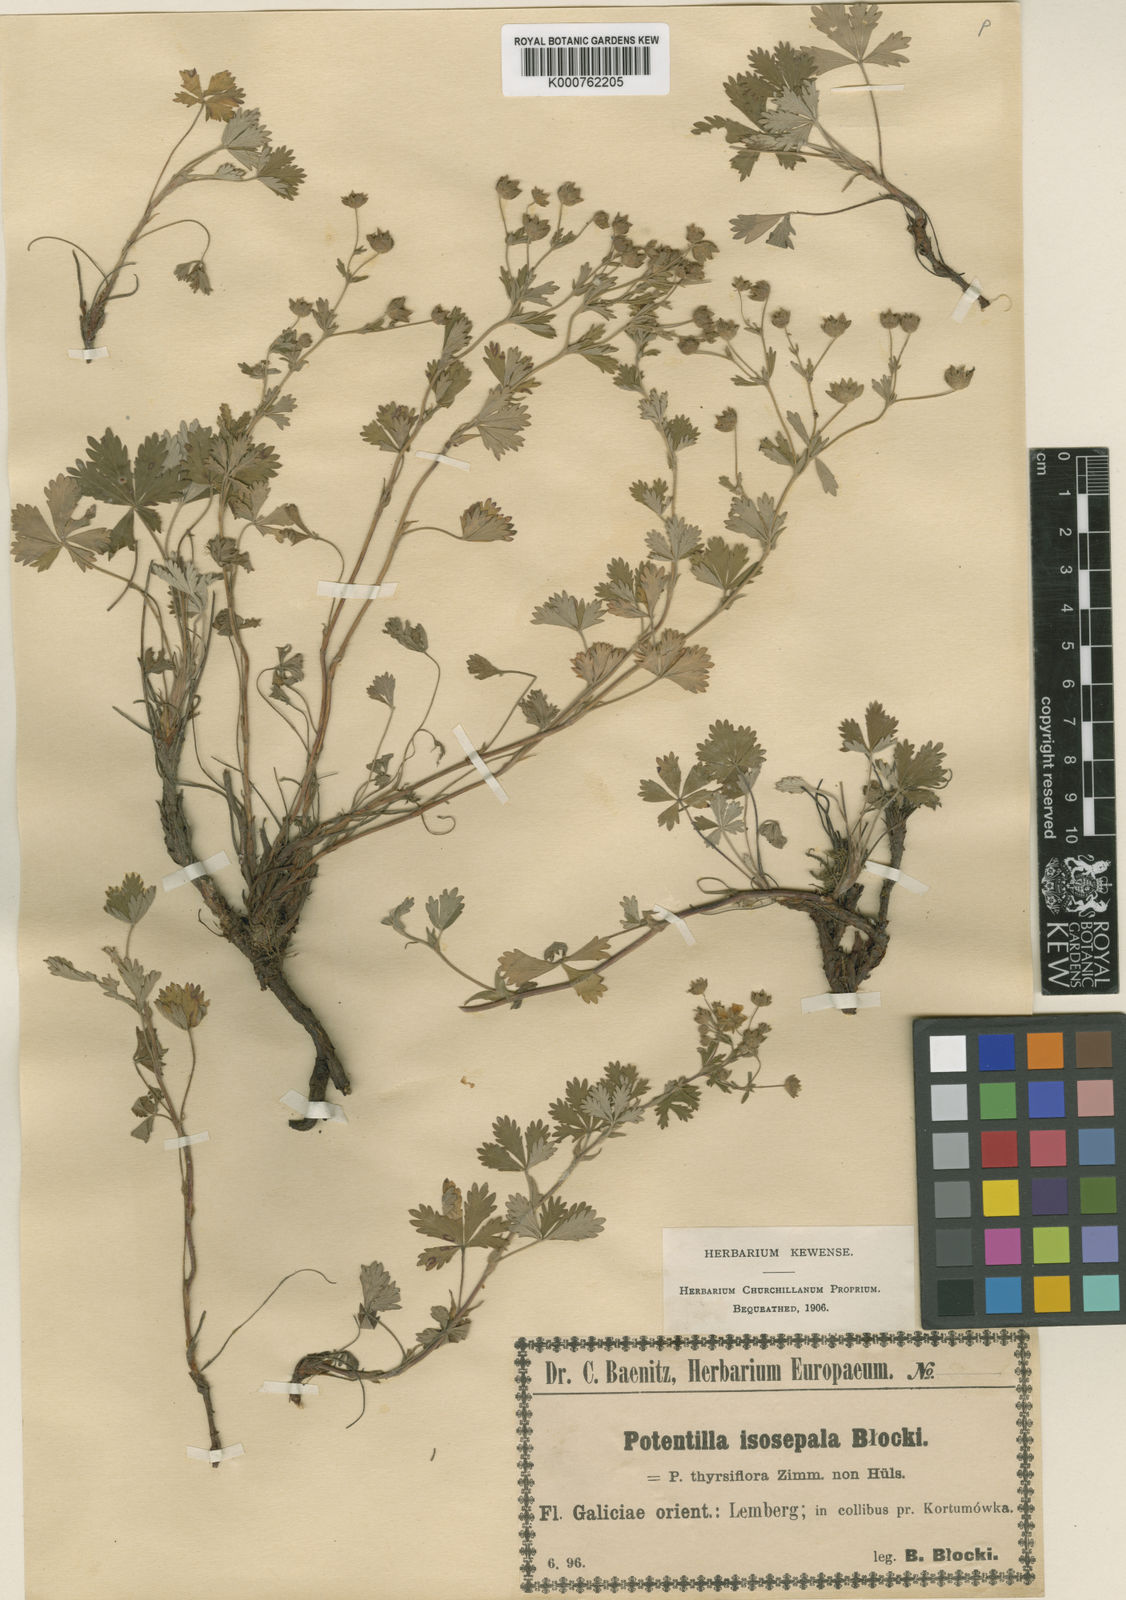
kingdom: Plantae
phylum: Tracheophyta
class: Magnoliopsida
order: Rosales
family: Rosaceae
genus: Potentilla
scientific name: Potentilla
